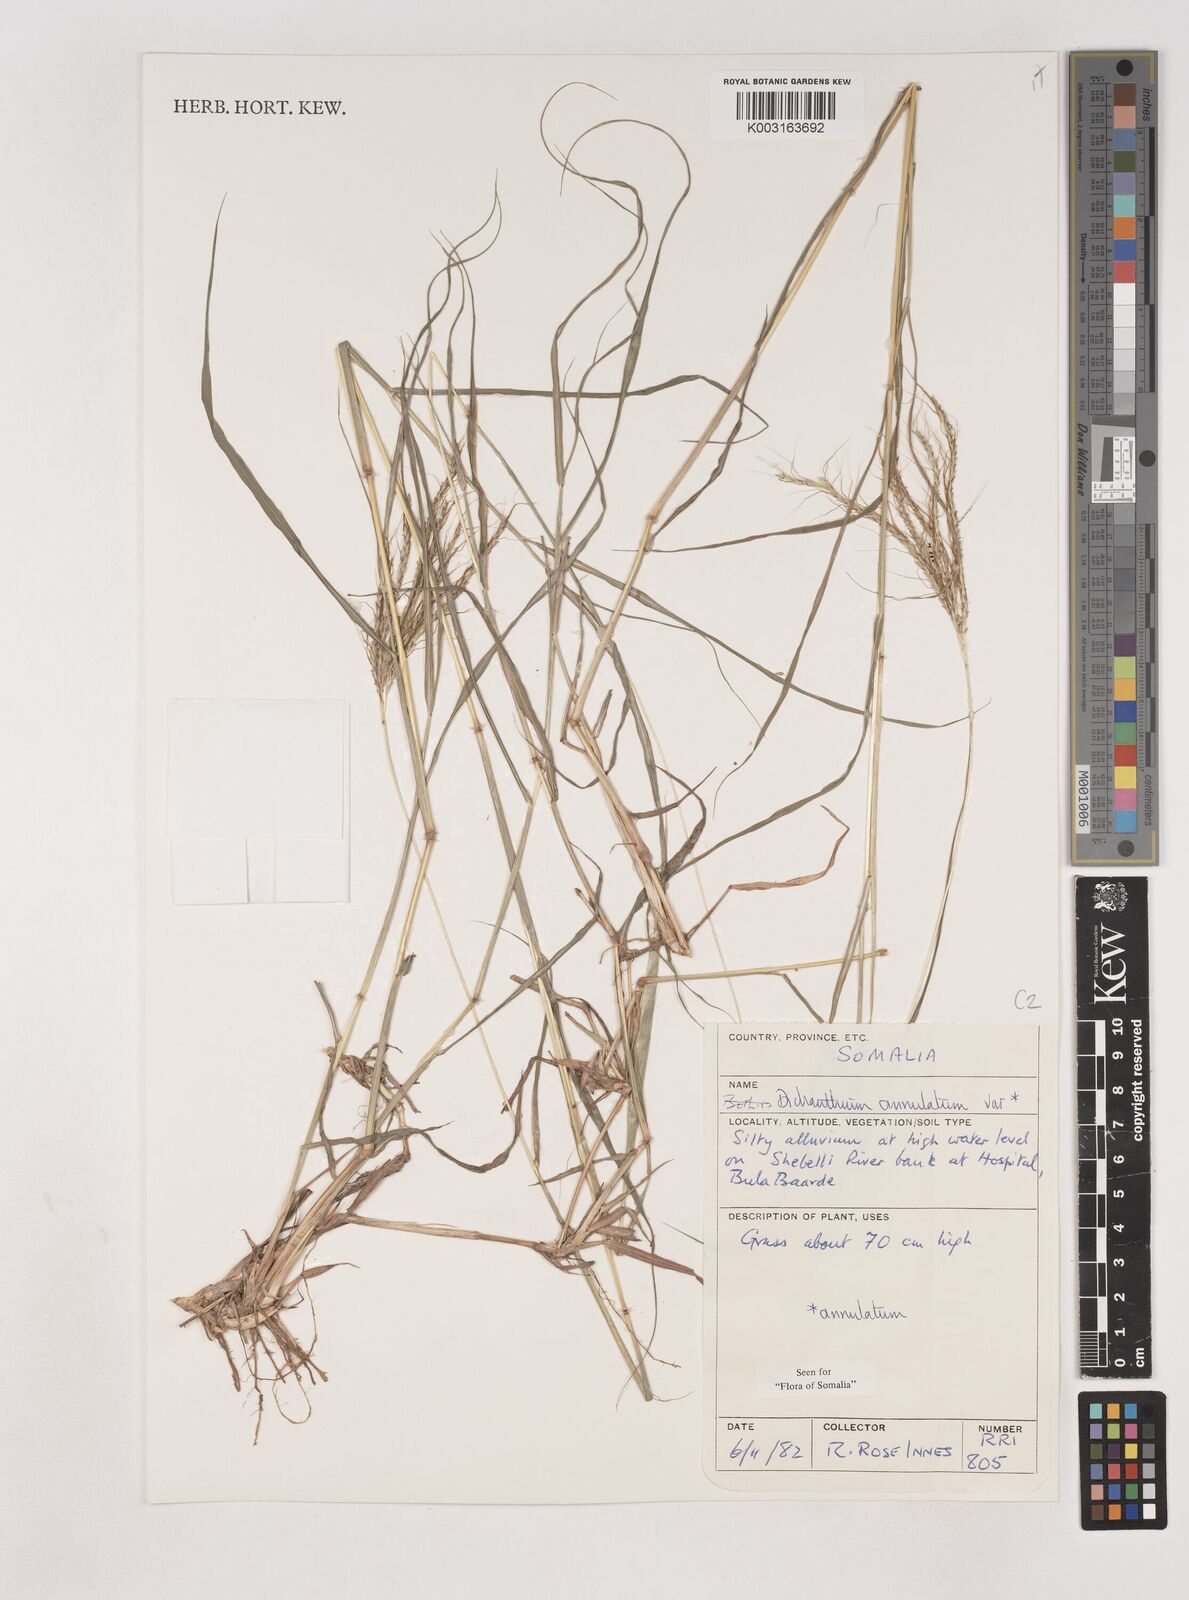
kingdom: Plantae
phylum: Tracheophyta
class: Liliopsida
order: Poales
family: Poaceae
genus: Dichanthium
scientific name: Dichanthium annulatum
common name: Kleberg's bluestem
